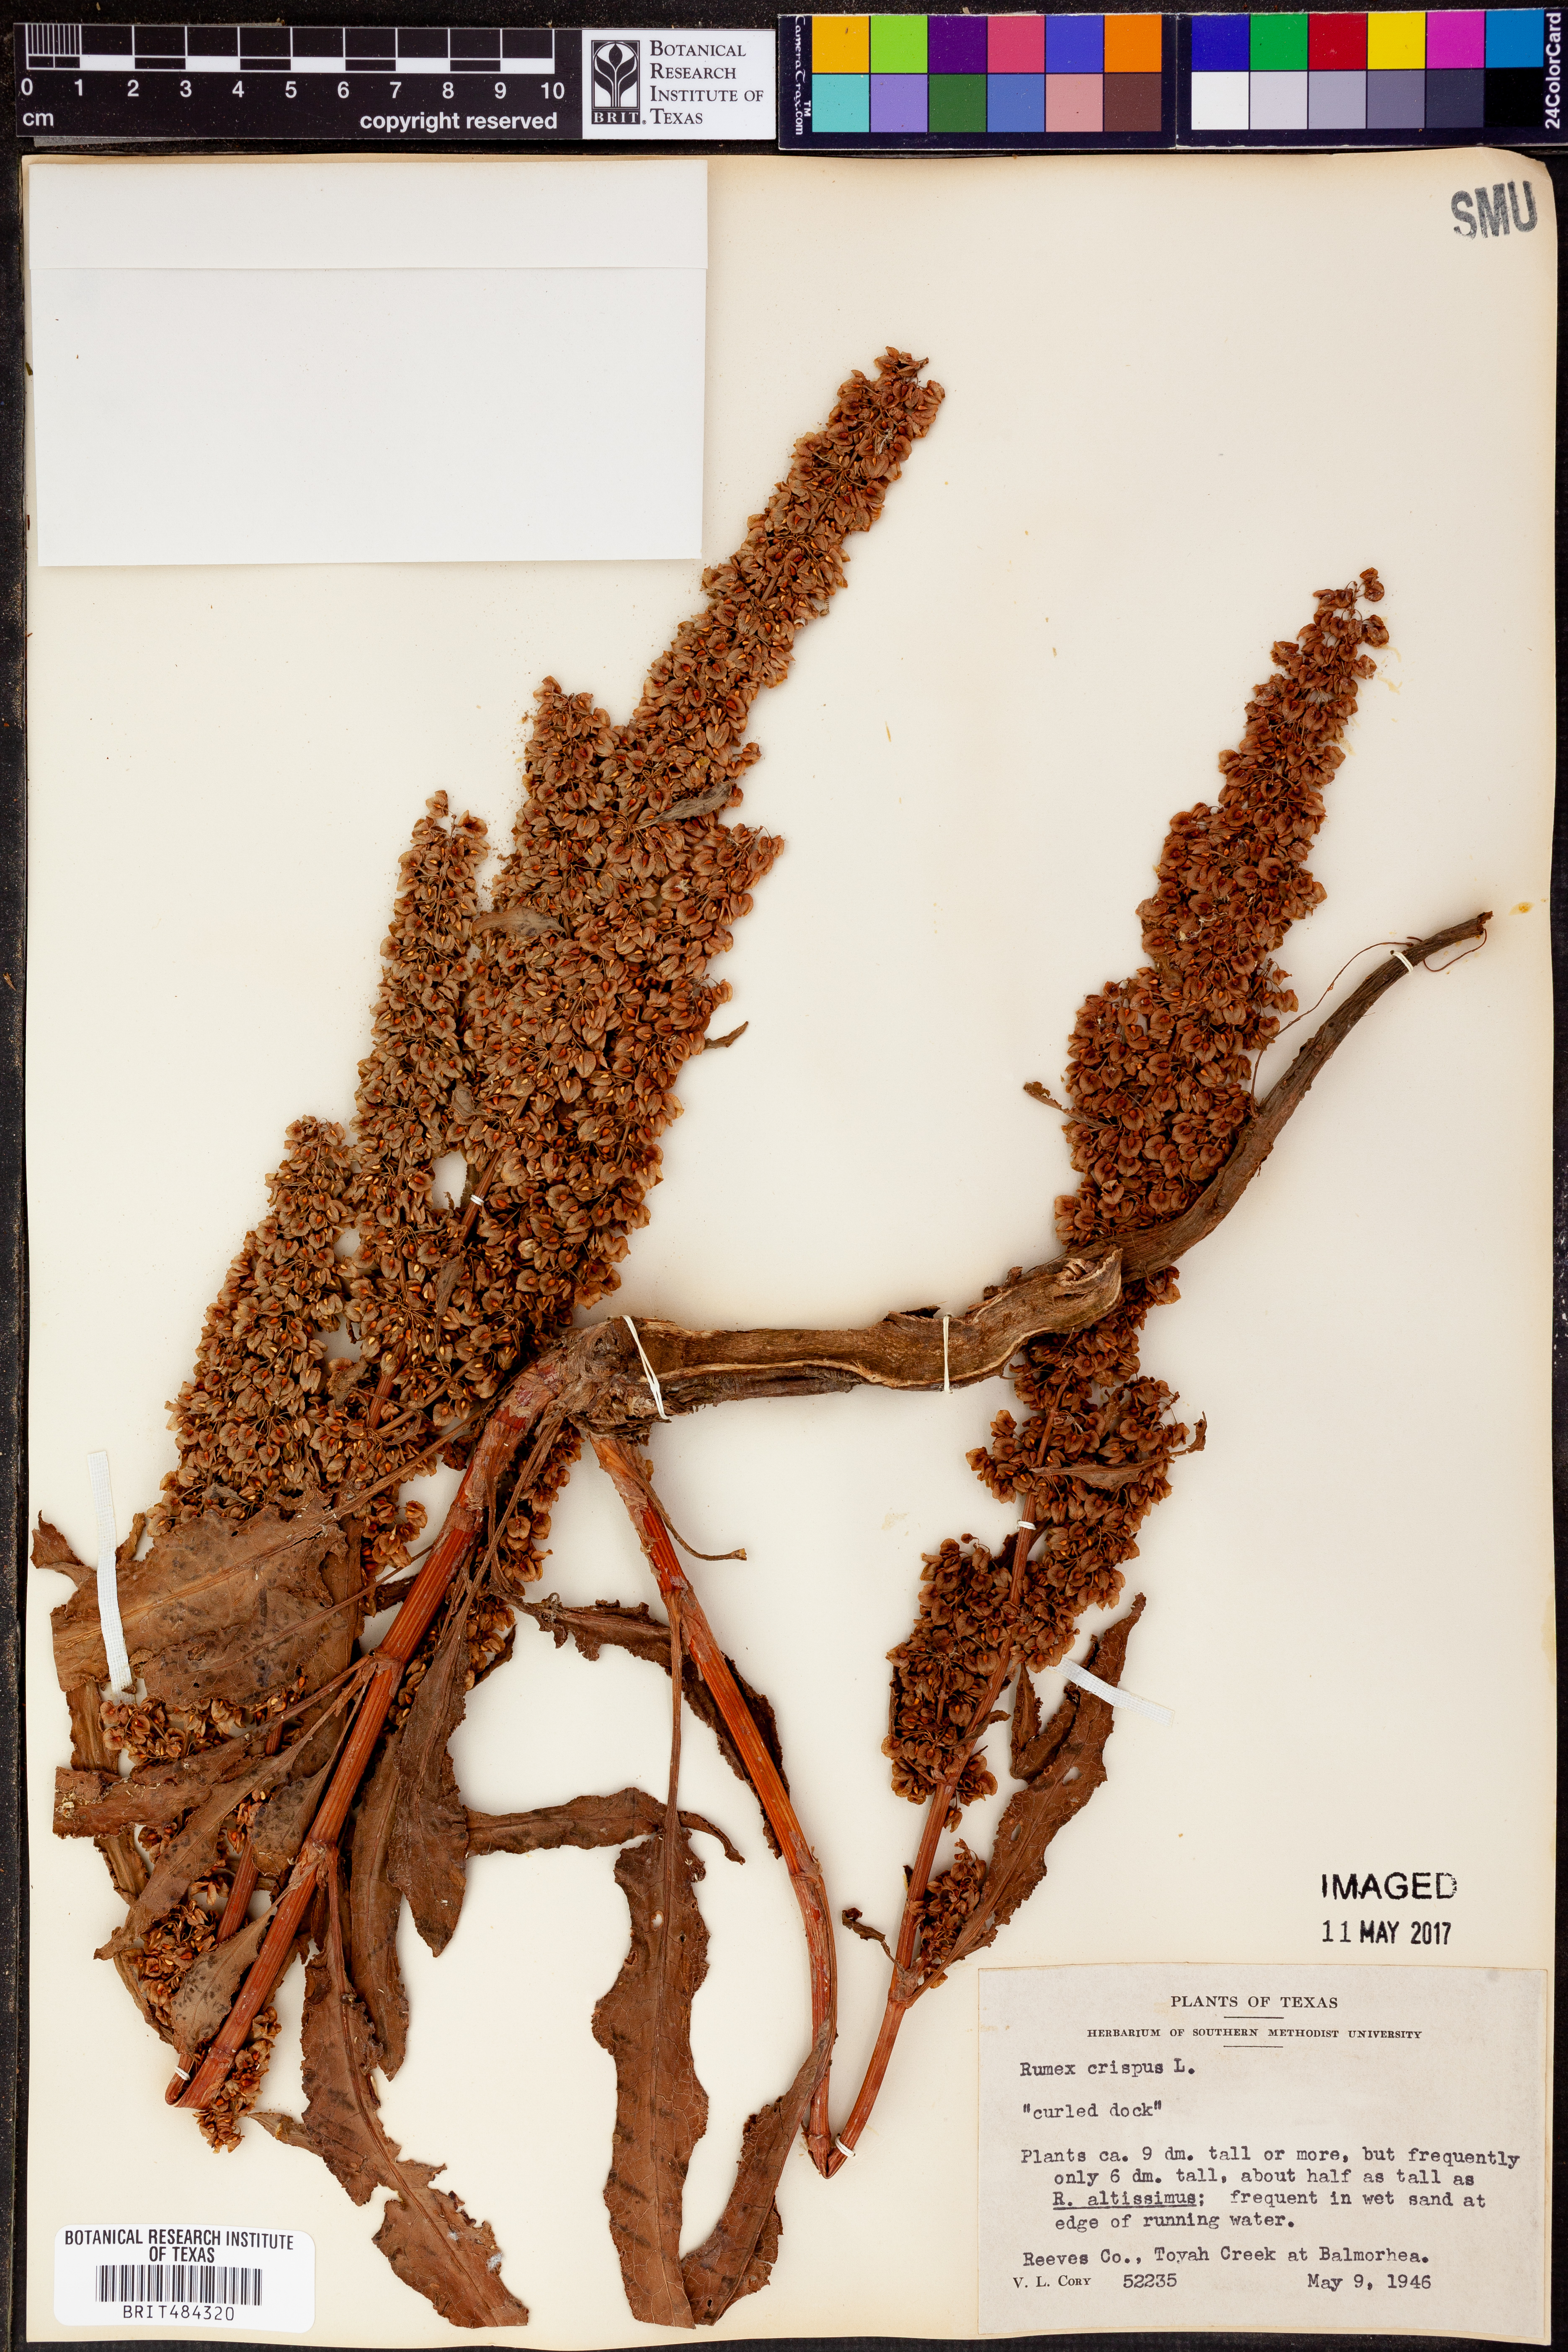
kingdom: Plantae
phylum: Tracheophyta
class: Magnoliopsida
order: Caryophyllales
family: Polygonaceae
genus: Rumex
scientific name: Rumex crispus
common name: Curled dock
